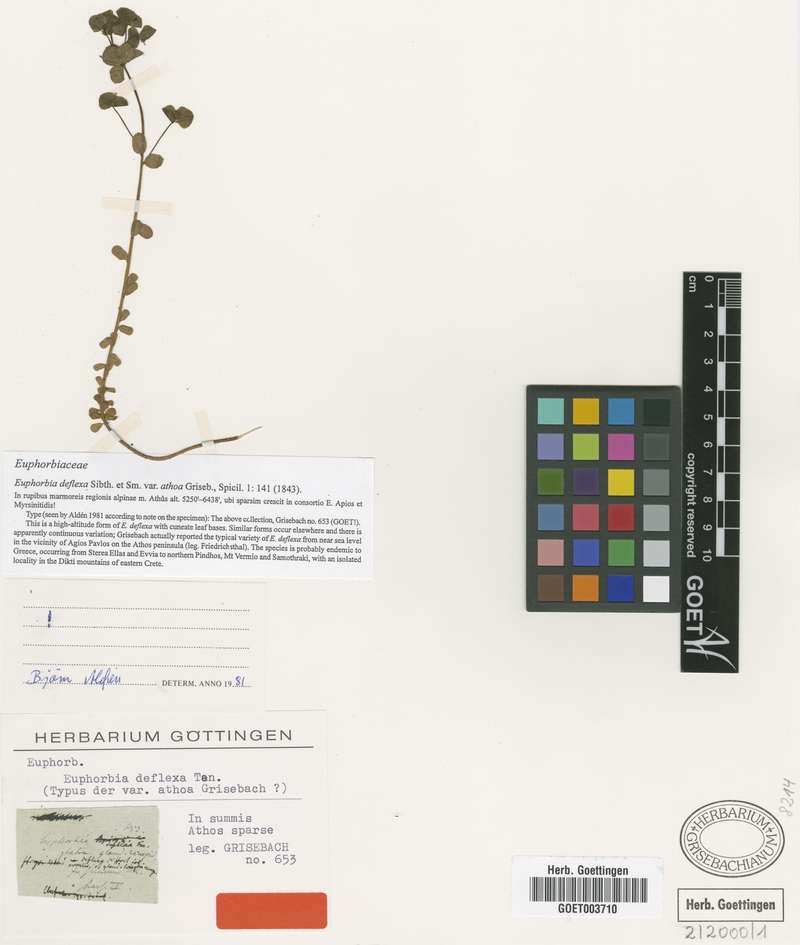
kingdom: Plantae
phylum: Tracheophyta
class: Magnoliopsida
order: Malpighiales
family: Euphorbiaceae
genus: Euphorbia
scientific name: Euphorbia deflexa
